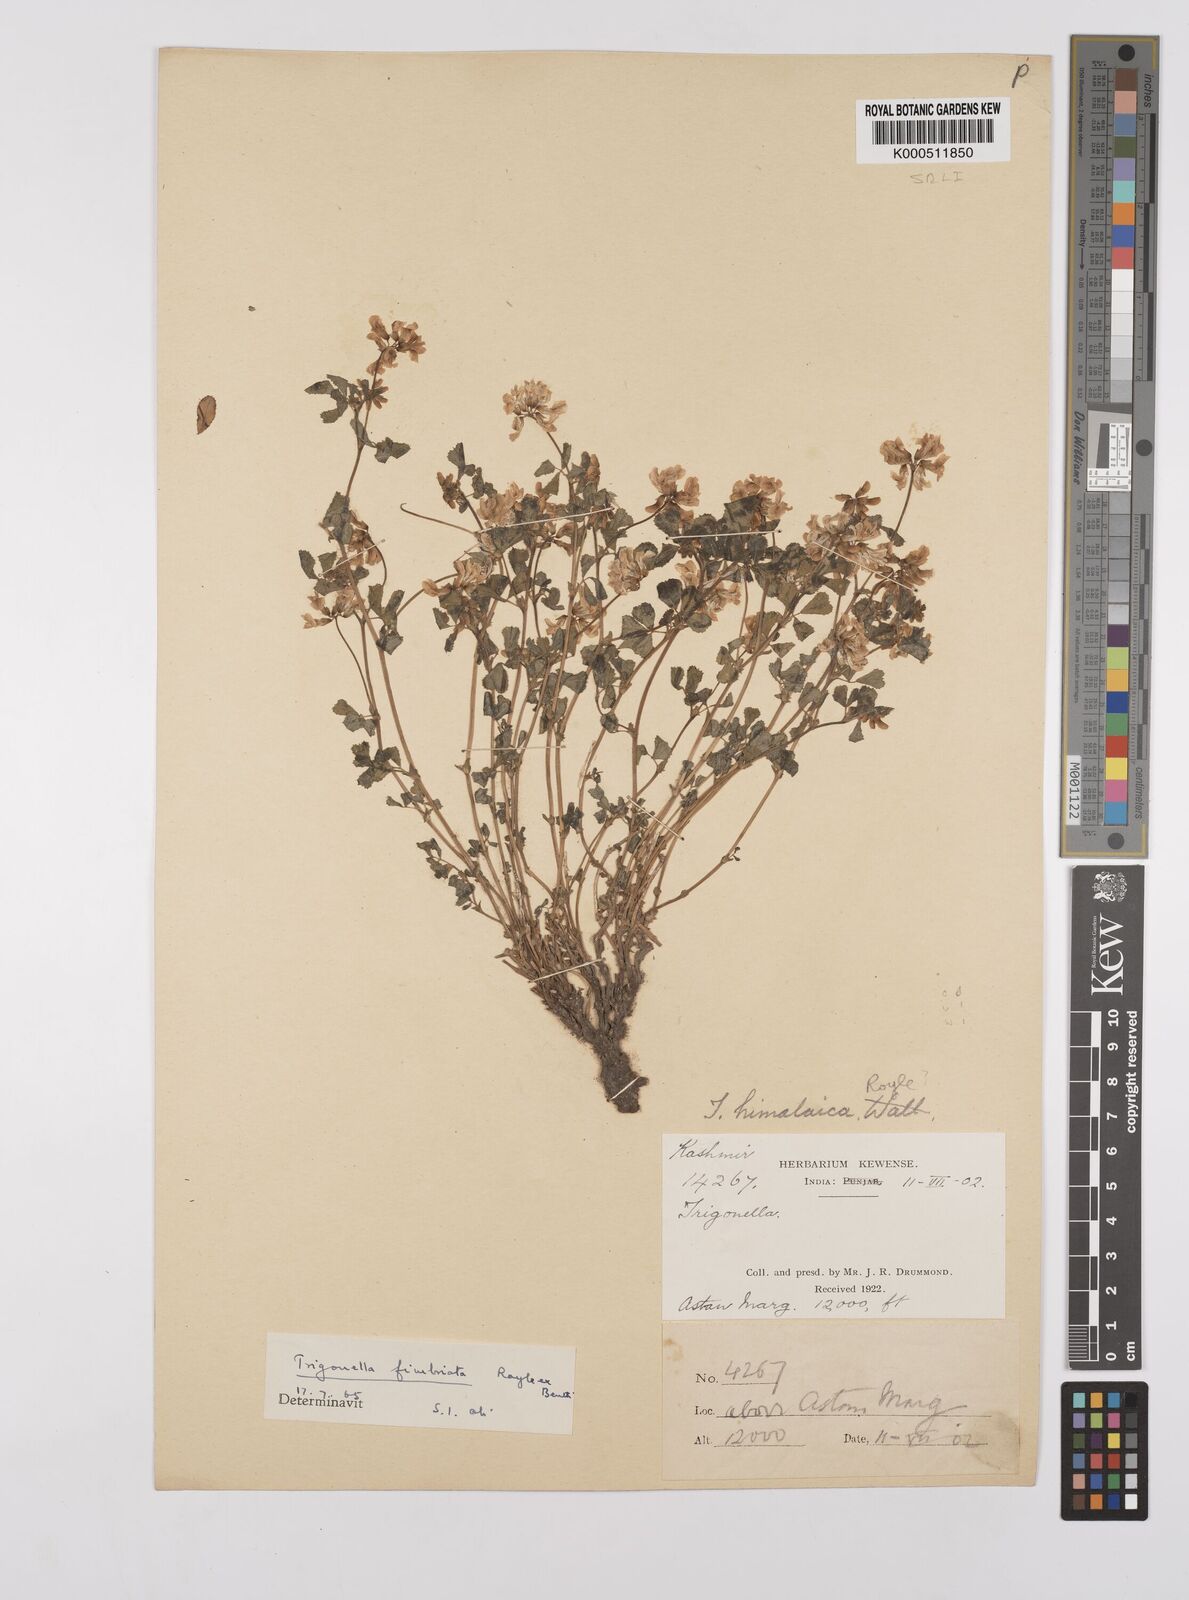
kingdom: Plantae
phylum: Tracheophyta
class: Magnoliopsida
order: Fabales
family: Fabaceae
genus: Trigonella
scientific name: Trigonella emodi
